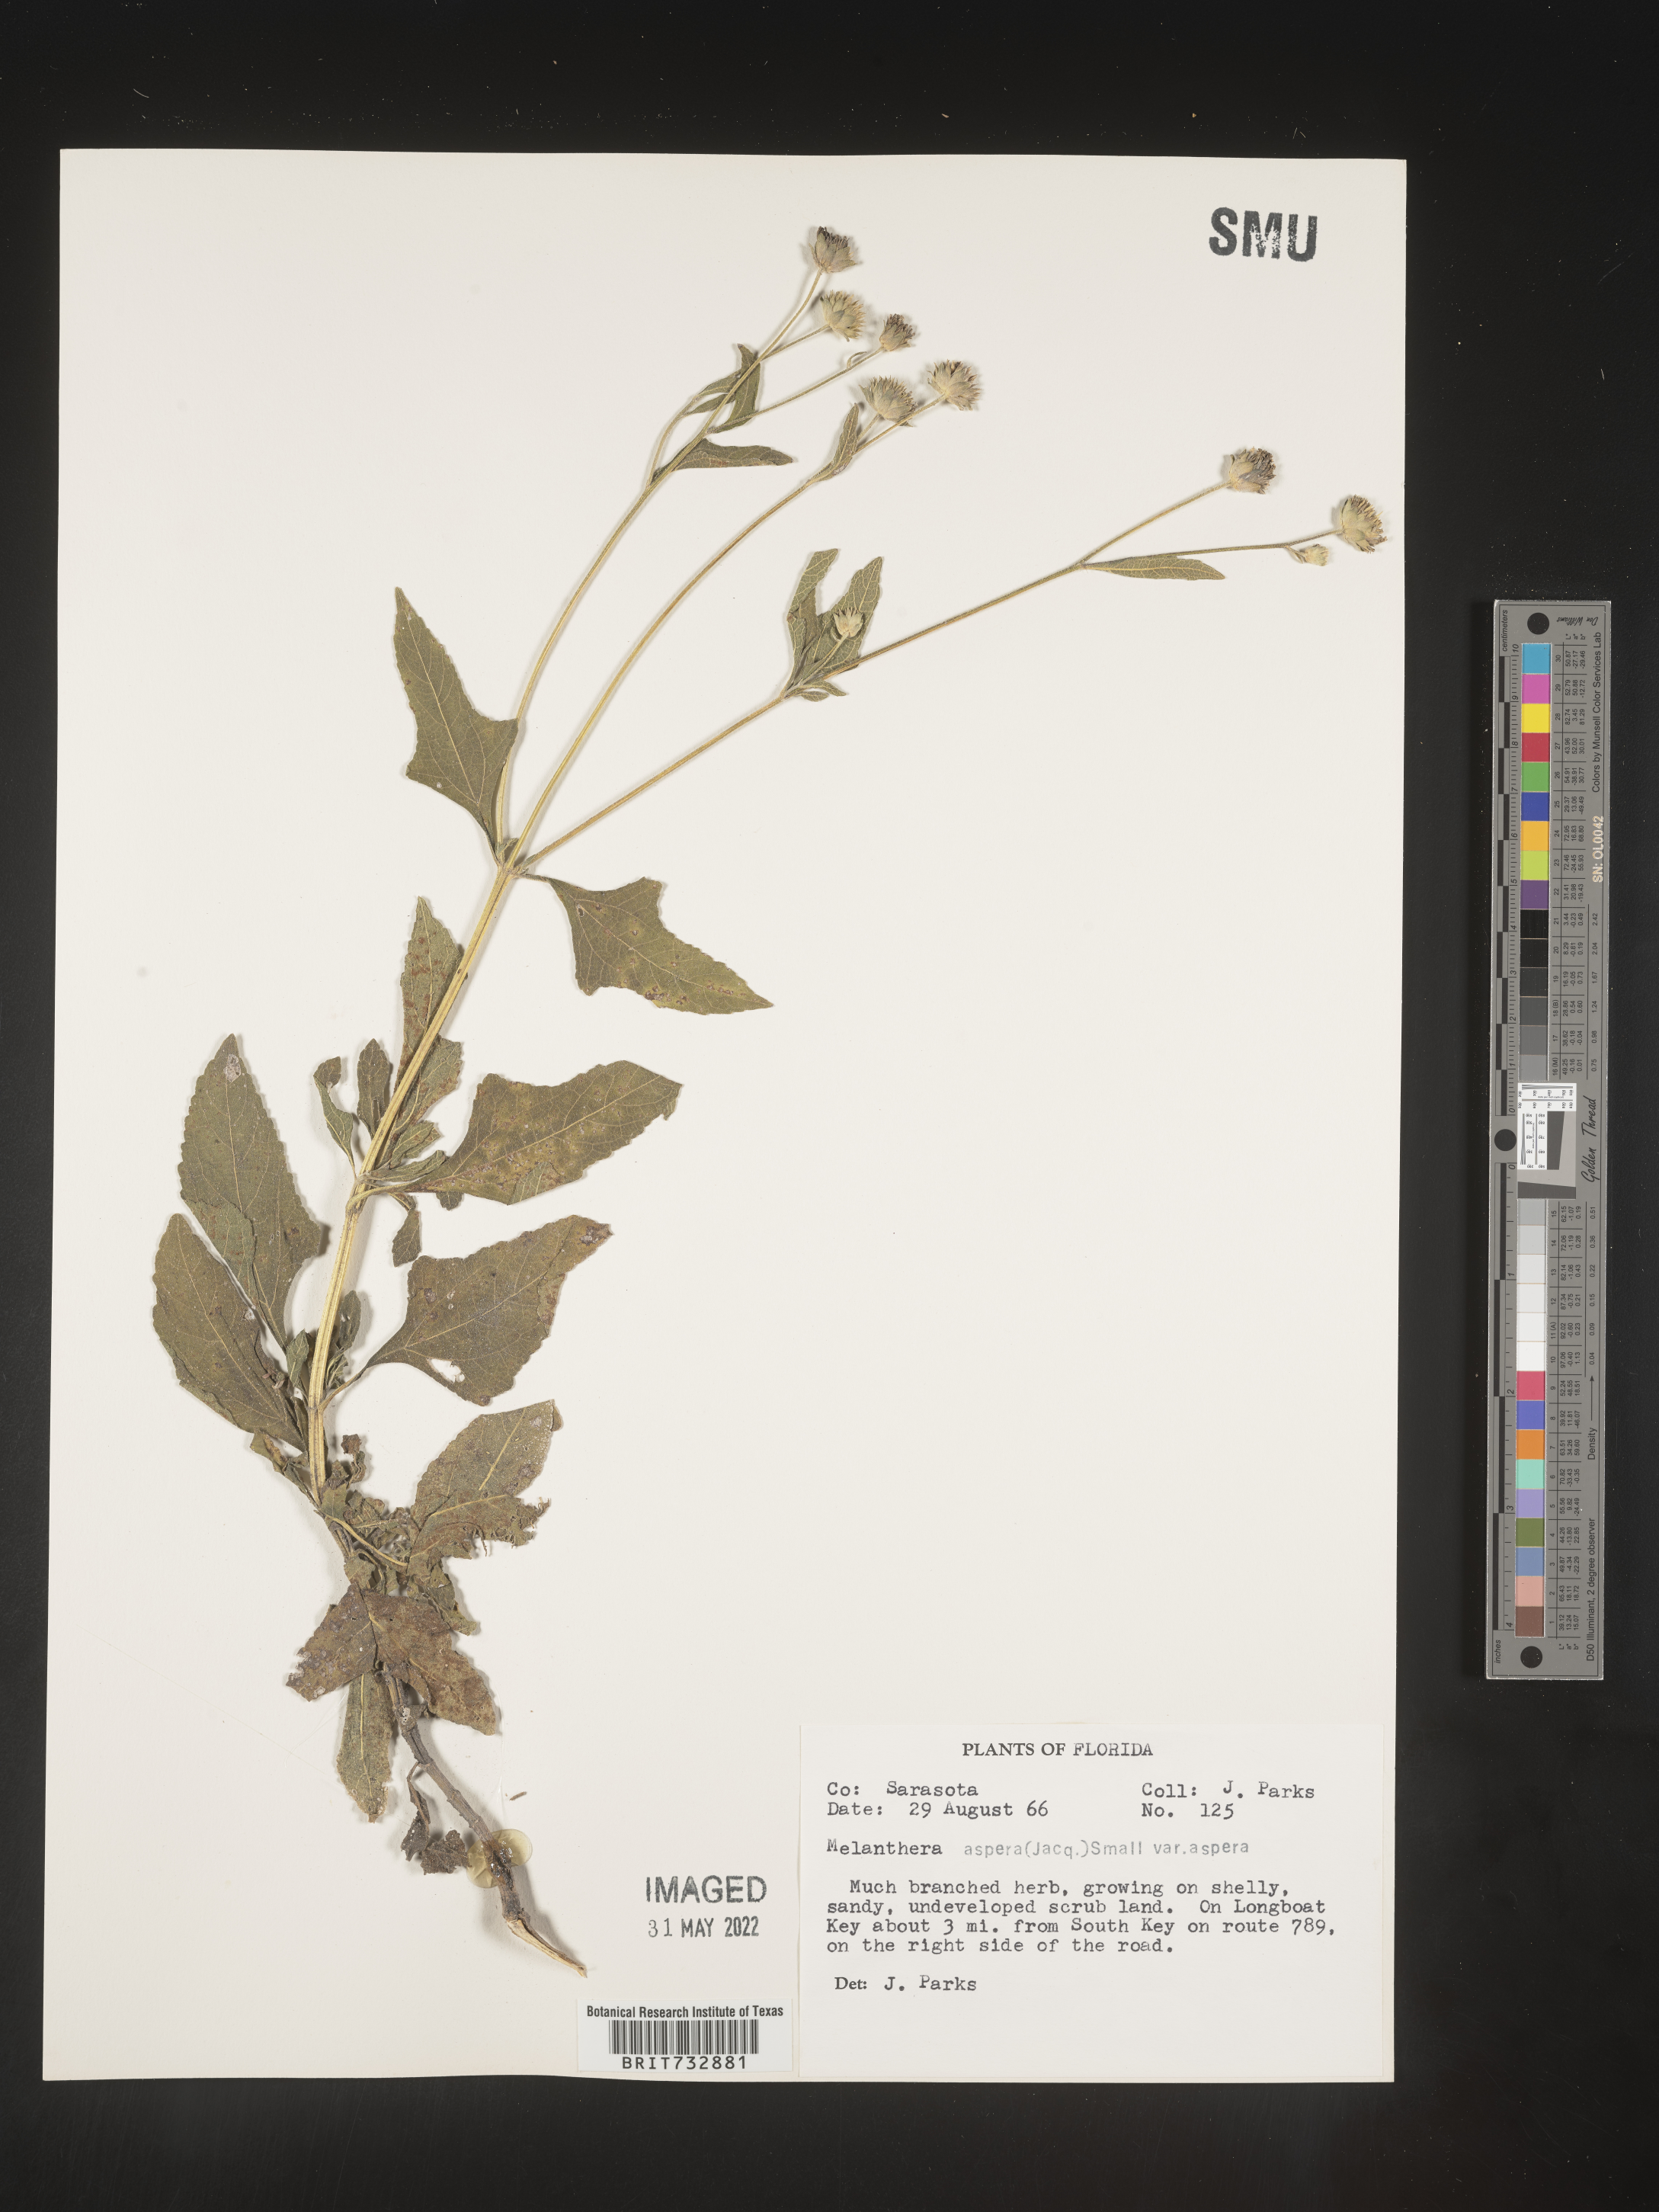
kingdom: Plantae
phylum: Tracheophyta
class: Magnoliopsida
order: Asterales
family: Asteraceae
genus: Melanthera
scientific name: Melanthera nivea
